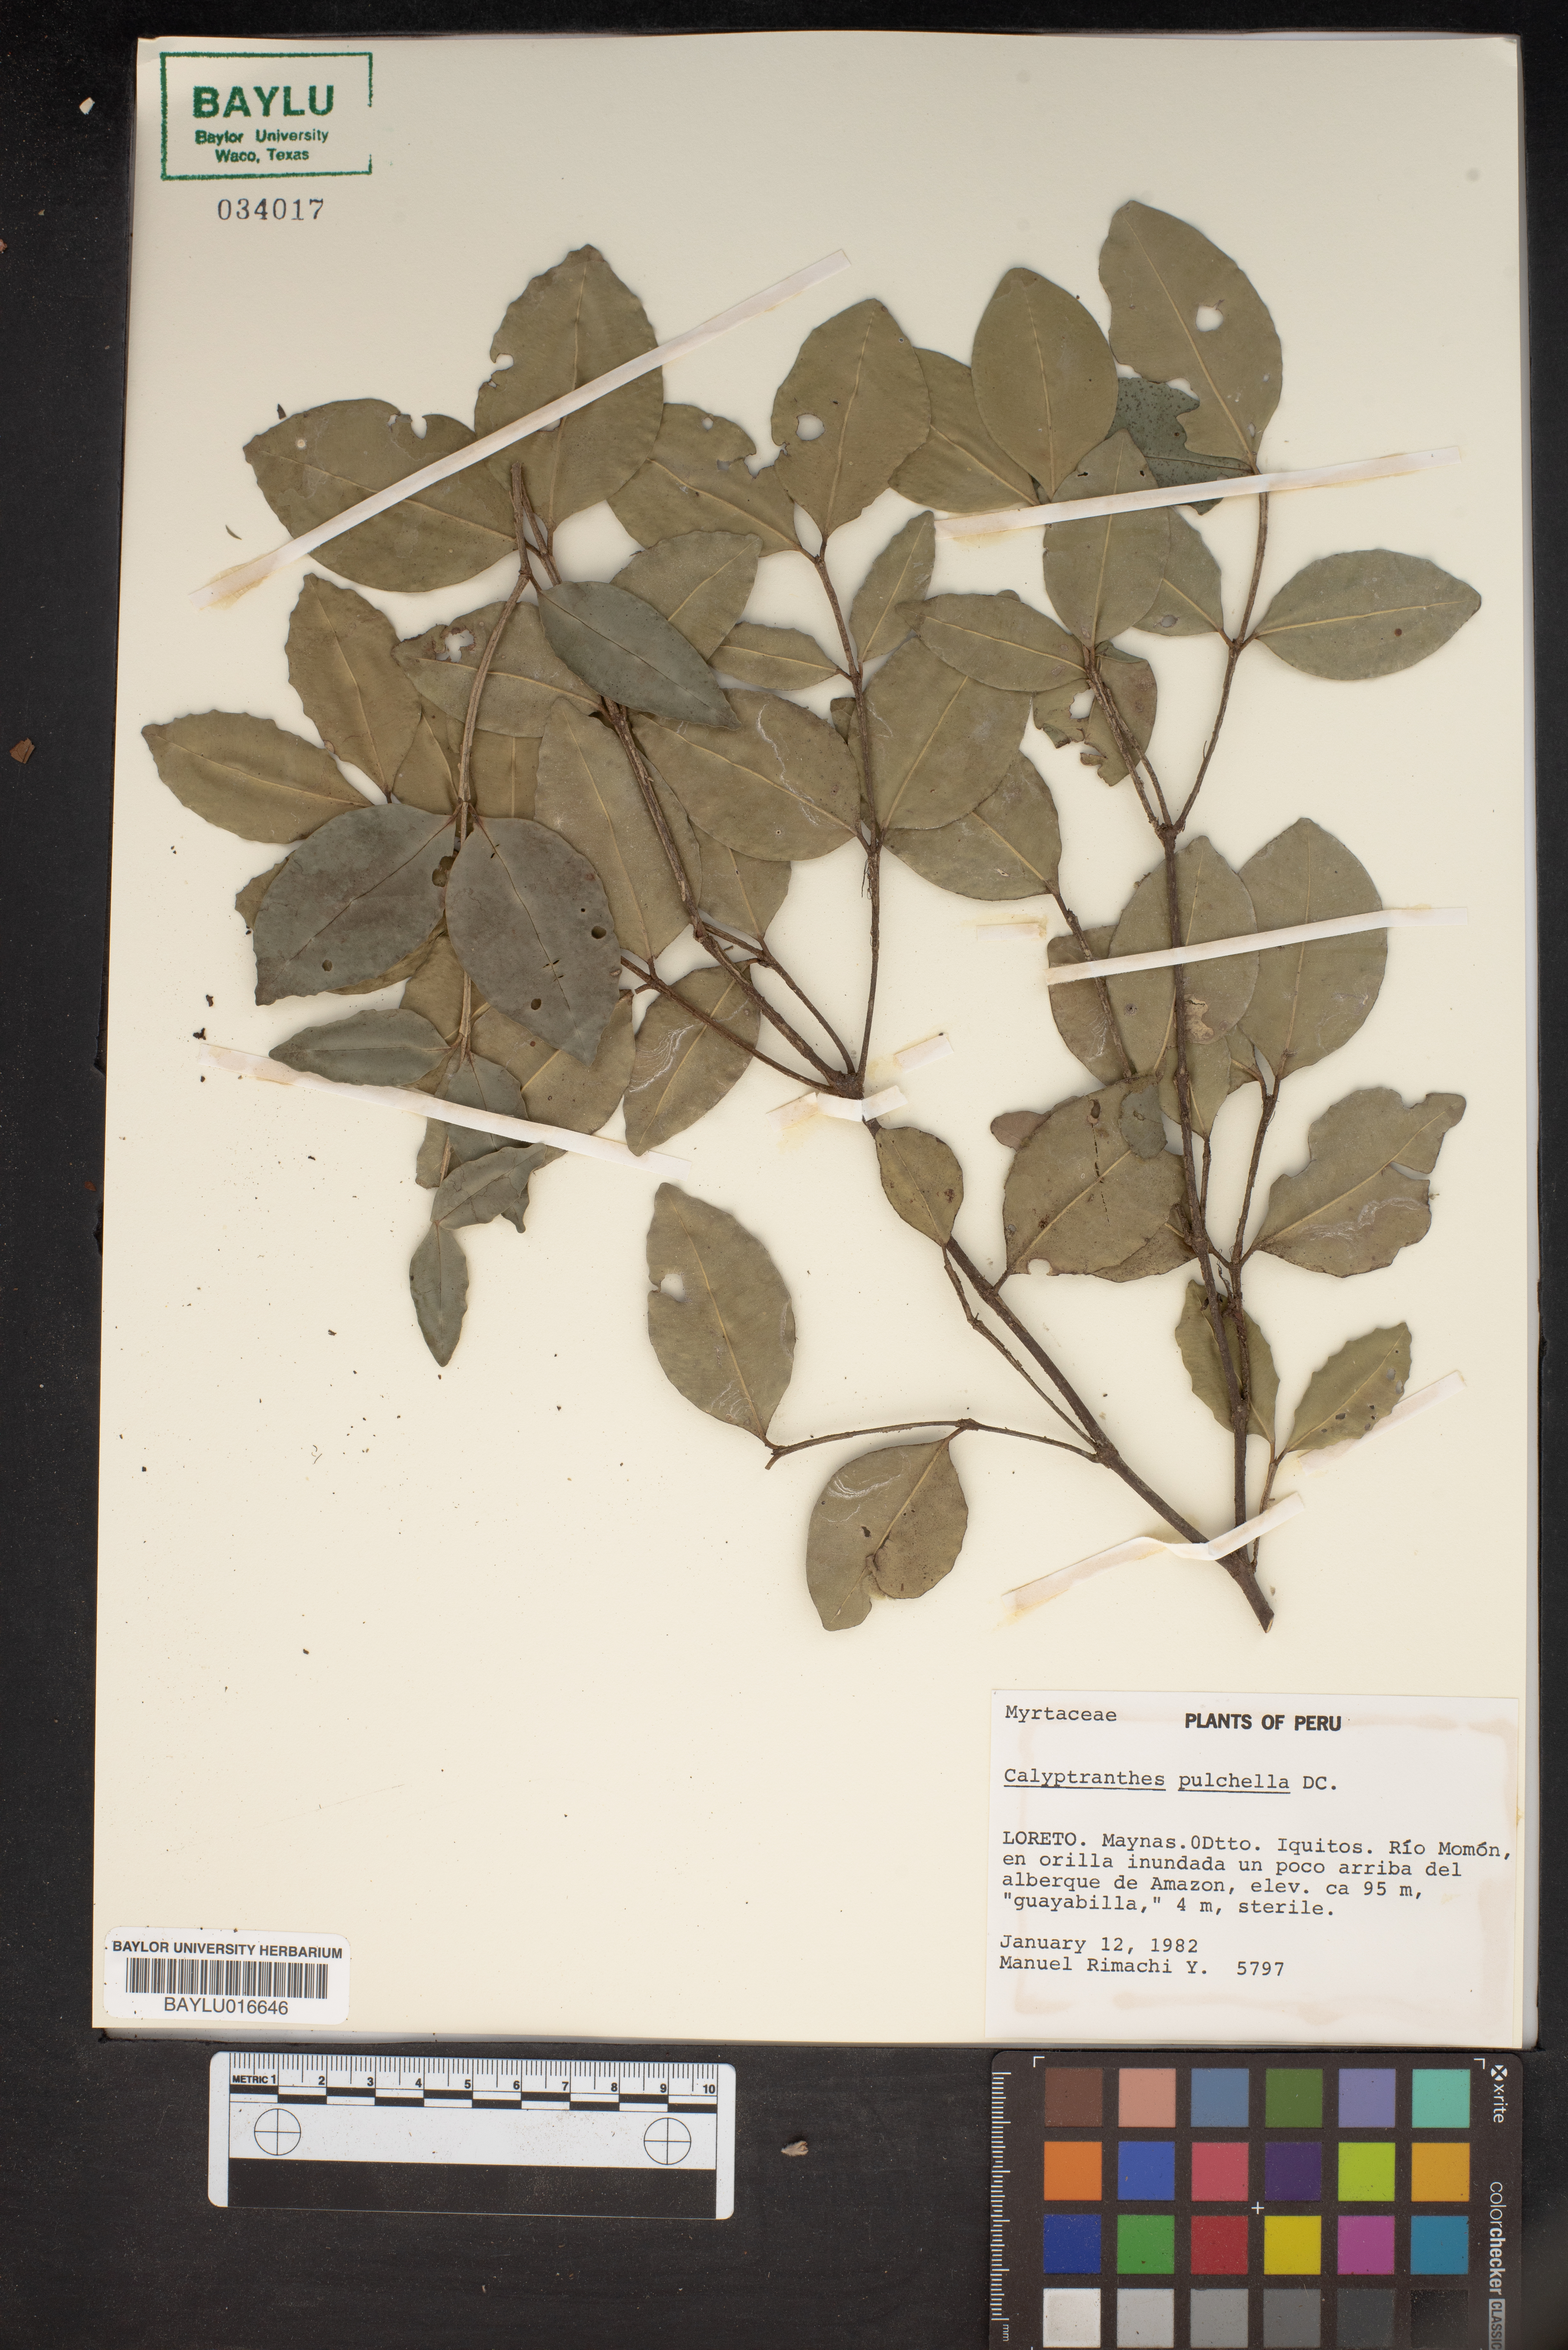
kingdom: Plantae
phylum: Tracheophyta
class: Magnoliopsida
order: Myrtales
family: Myrtaceae
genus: Myrcia
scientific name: Myrcia pulchella
